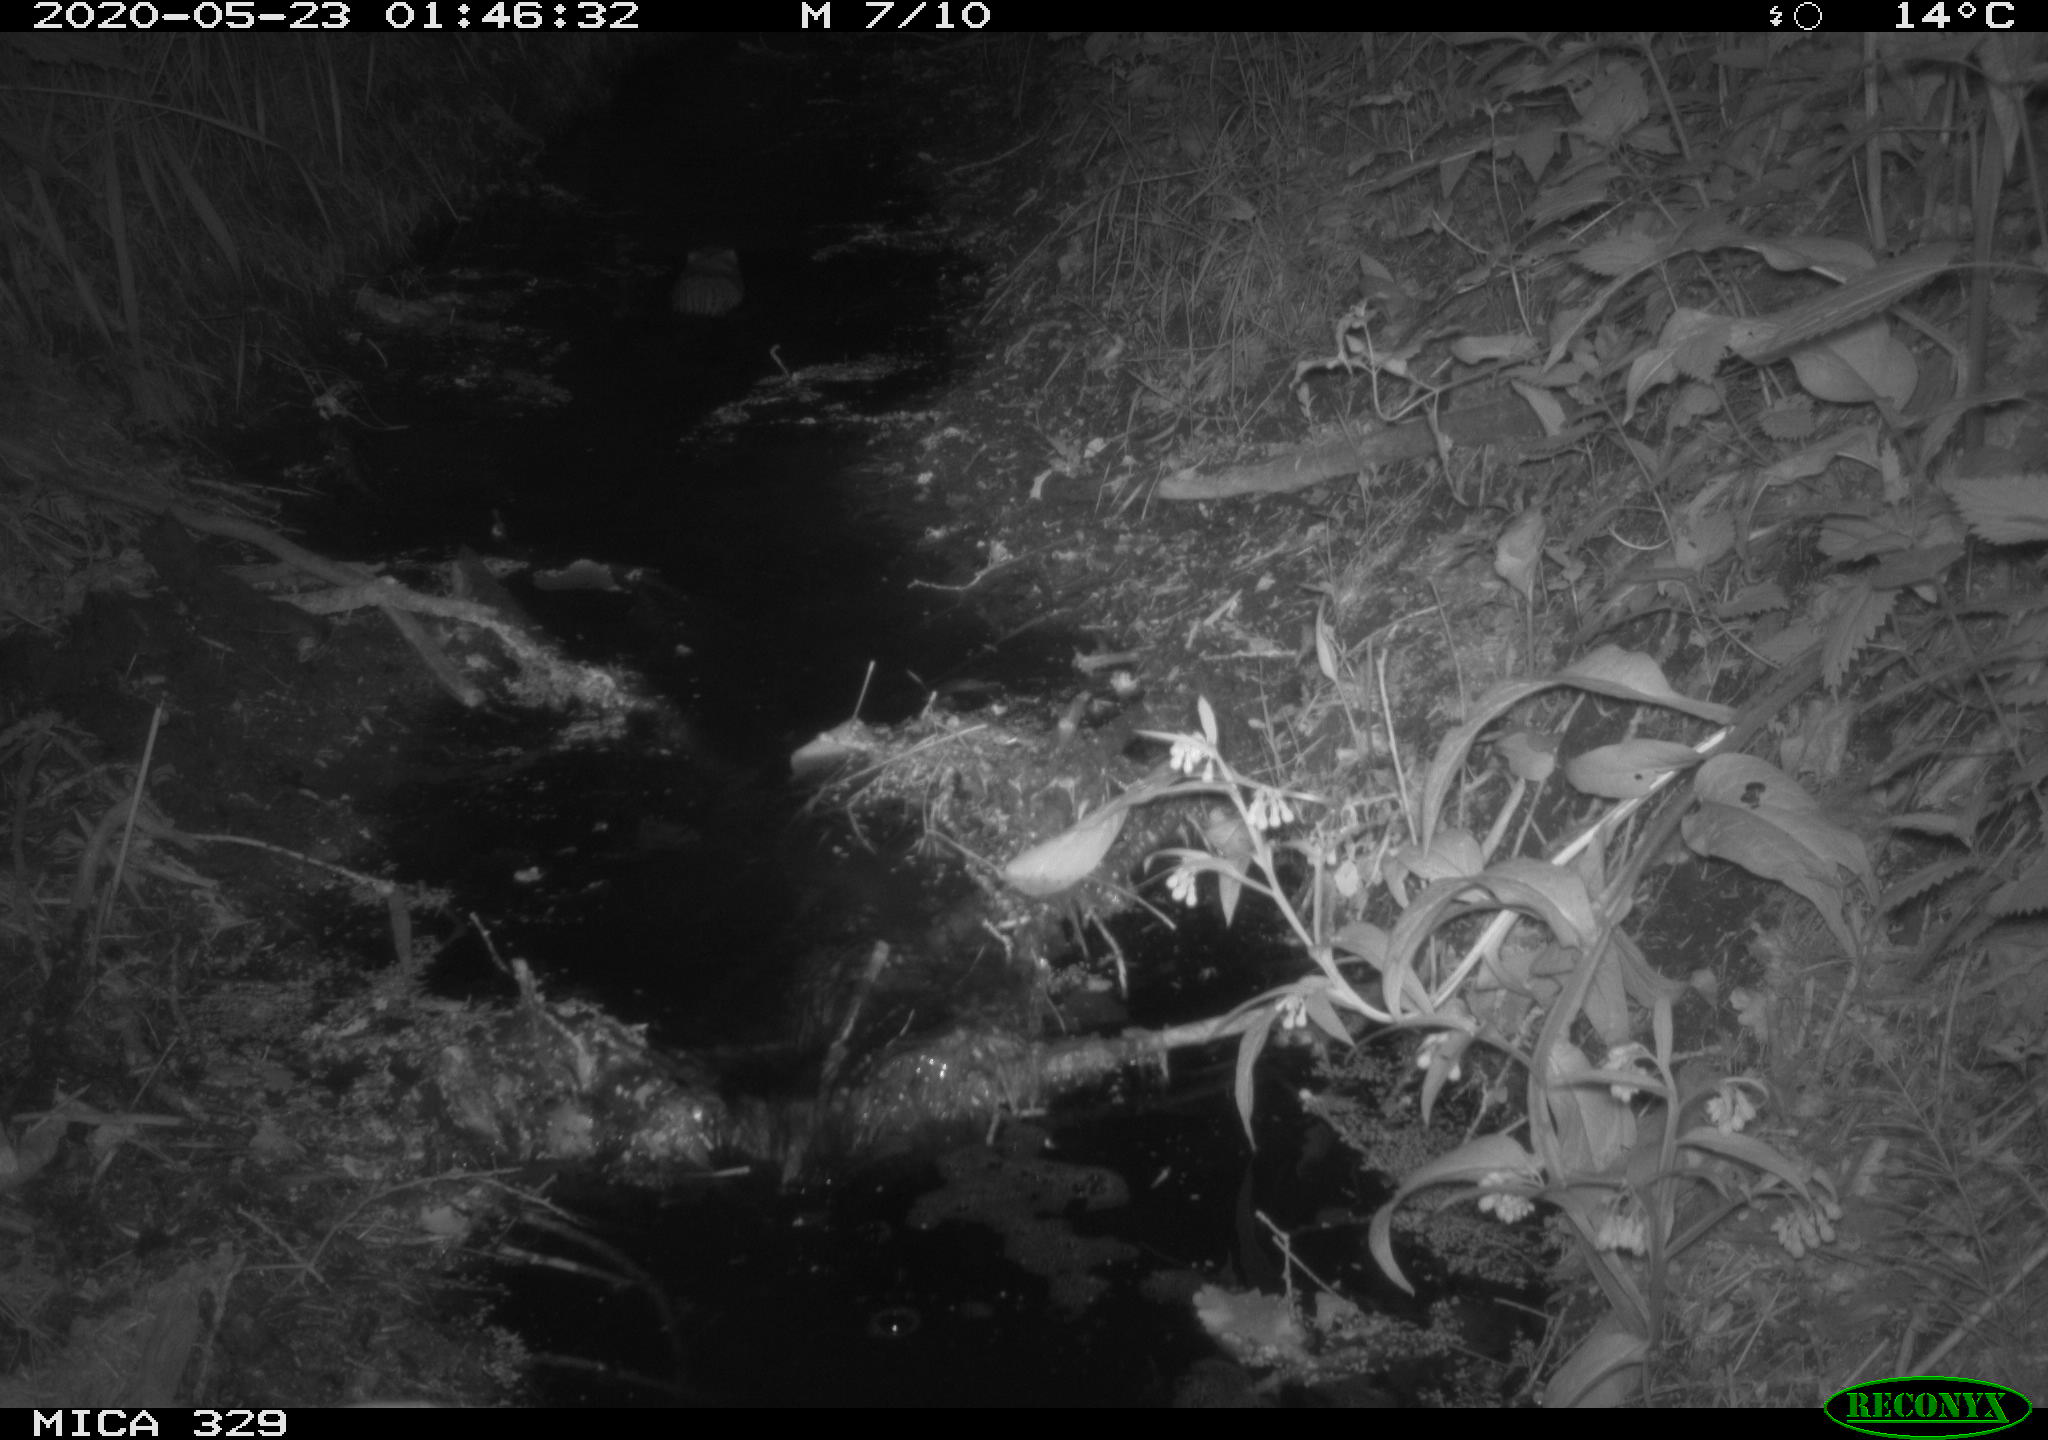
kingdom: Animalia
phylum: Chordata
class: Mammalia
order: Rodentia
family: Myocastoridae
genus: Myocastor
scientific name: Myocastor coypus
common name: Coypu
